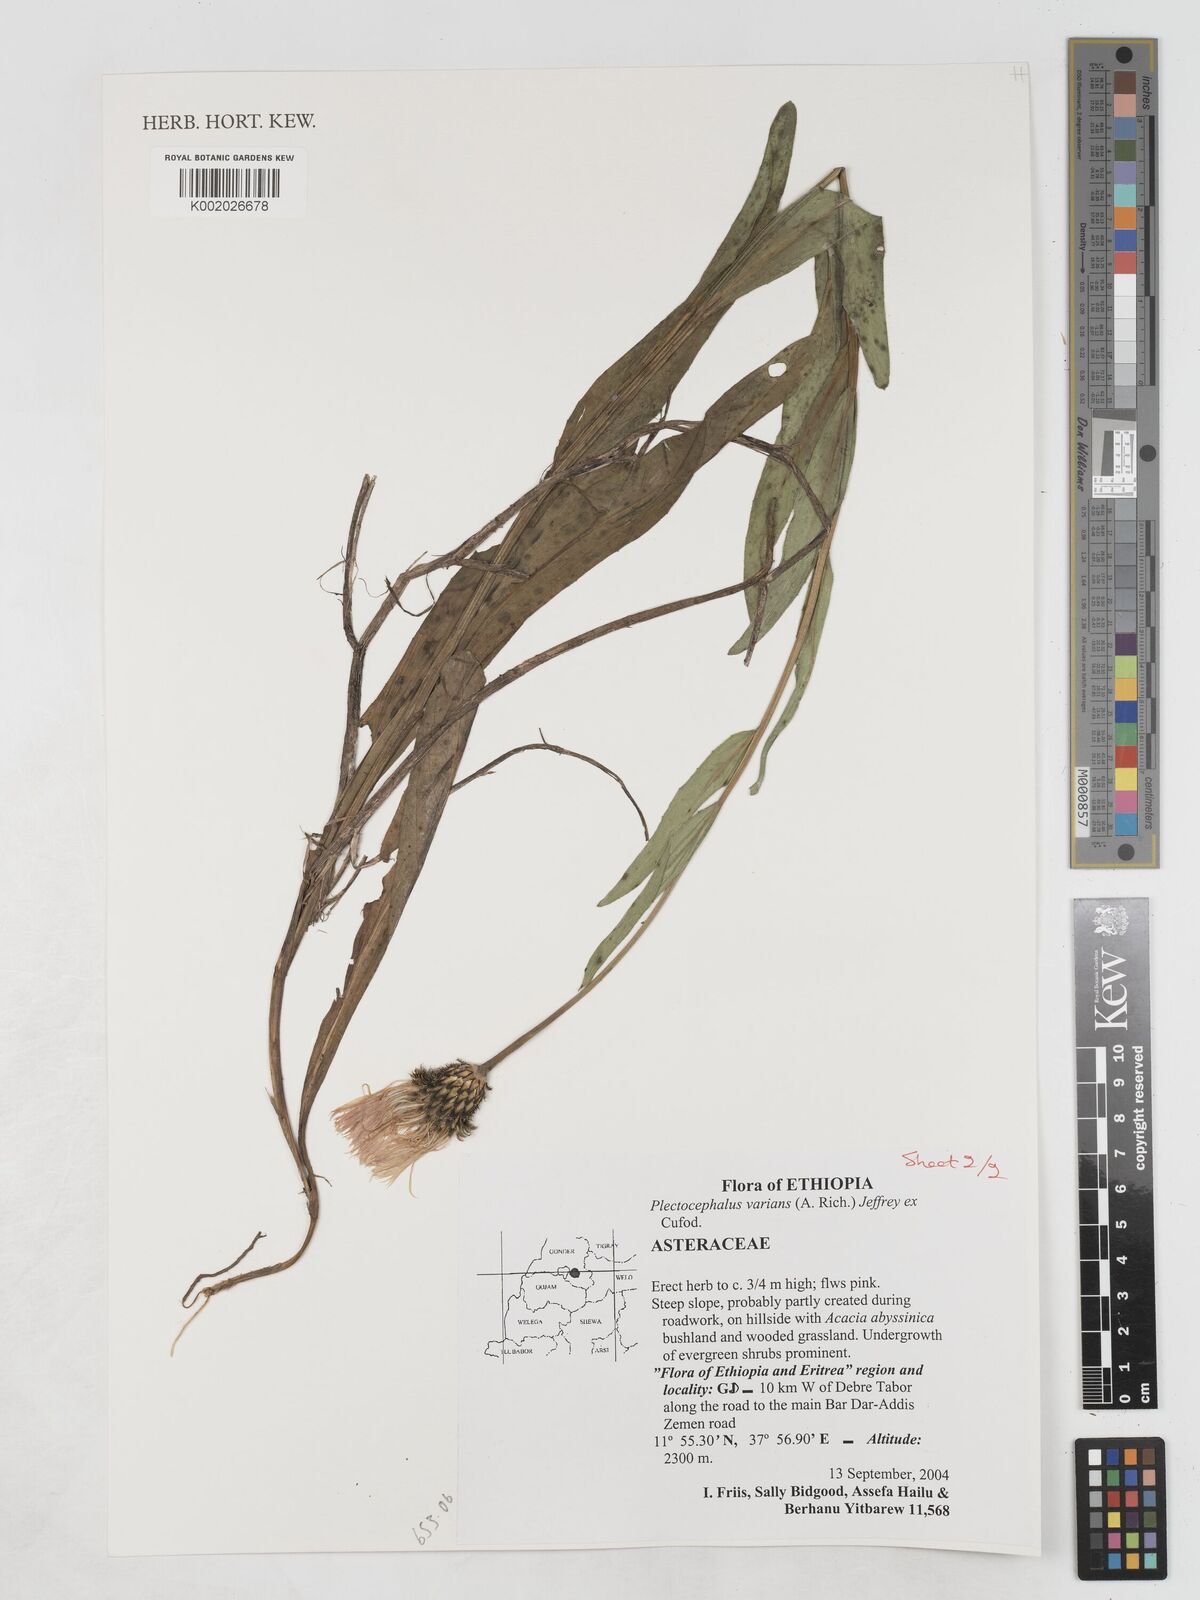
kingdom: Plantae
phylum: Tracheophyta
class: Magnoliopsida
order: Asterales
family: Asteraceae
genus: Plectocephalus
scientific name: Plectocephalus varians
